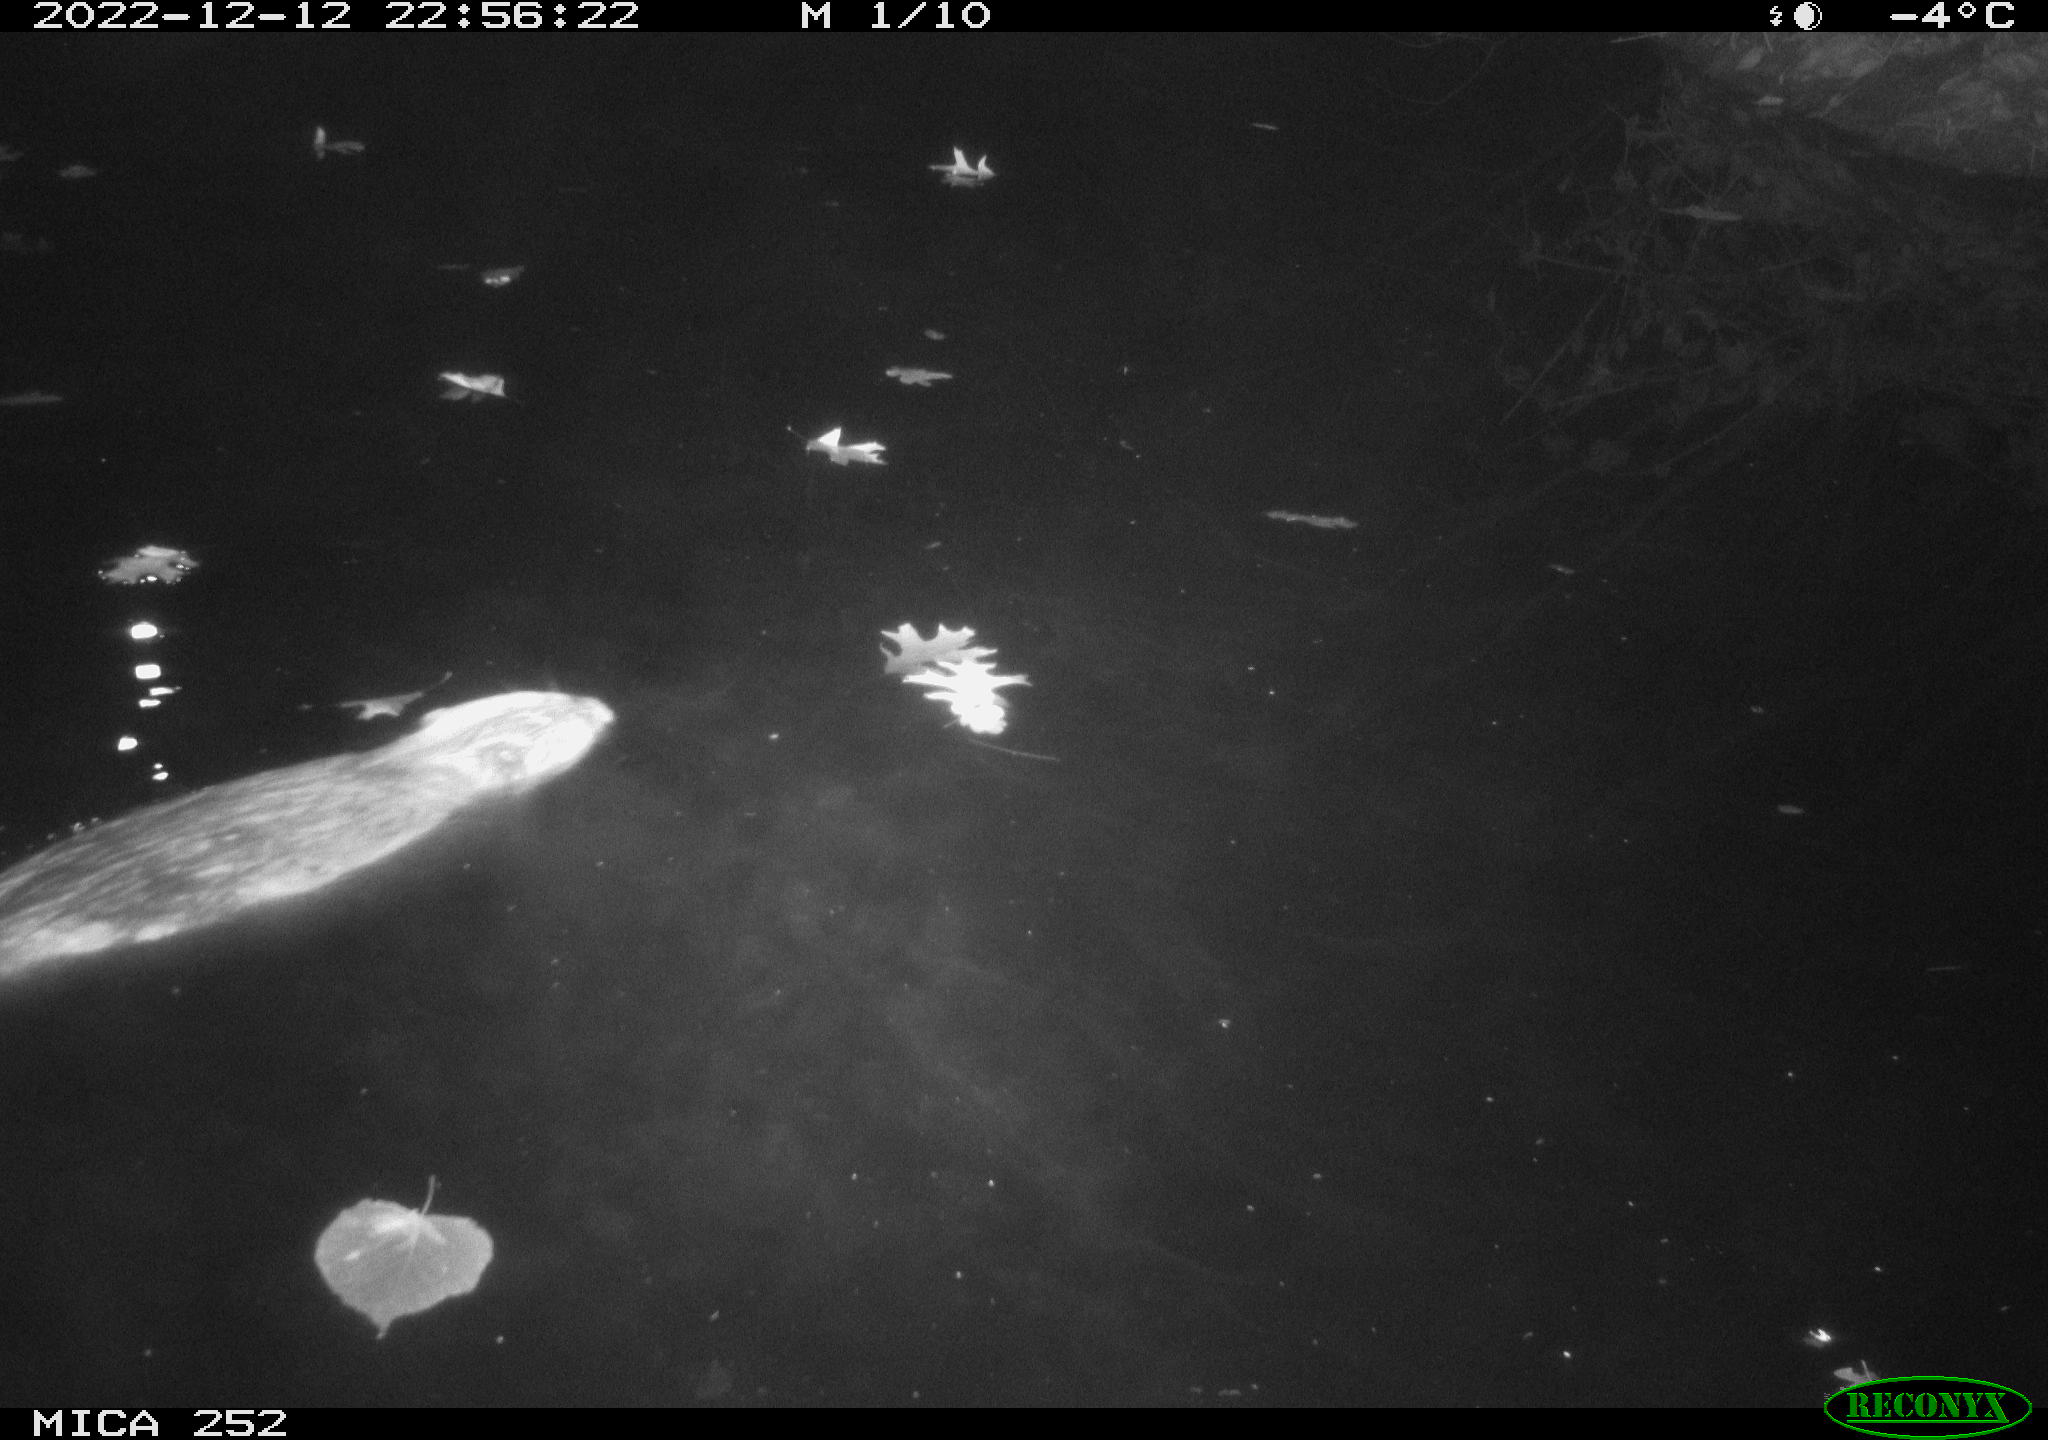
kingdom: Animalia
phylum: Chordata
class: Mammalia
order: Rodentia
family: Castoridae
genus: Castor
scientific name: Castor fiber
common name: Eurasian beaver
